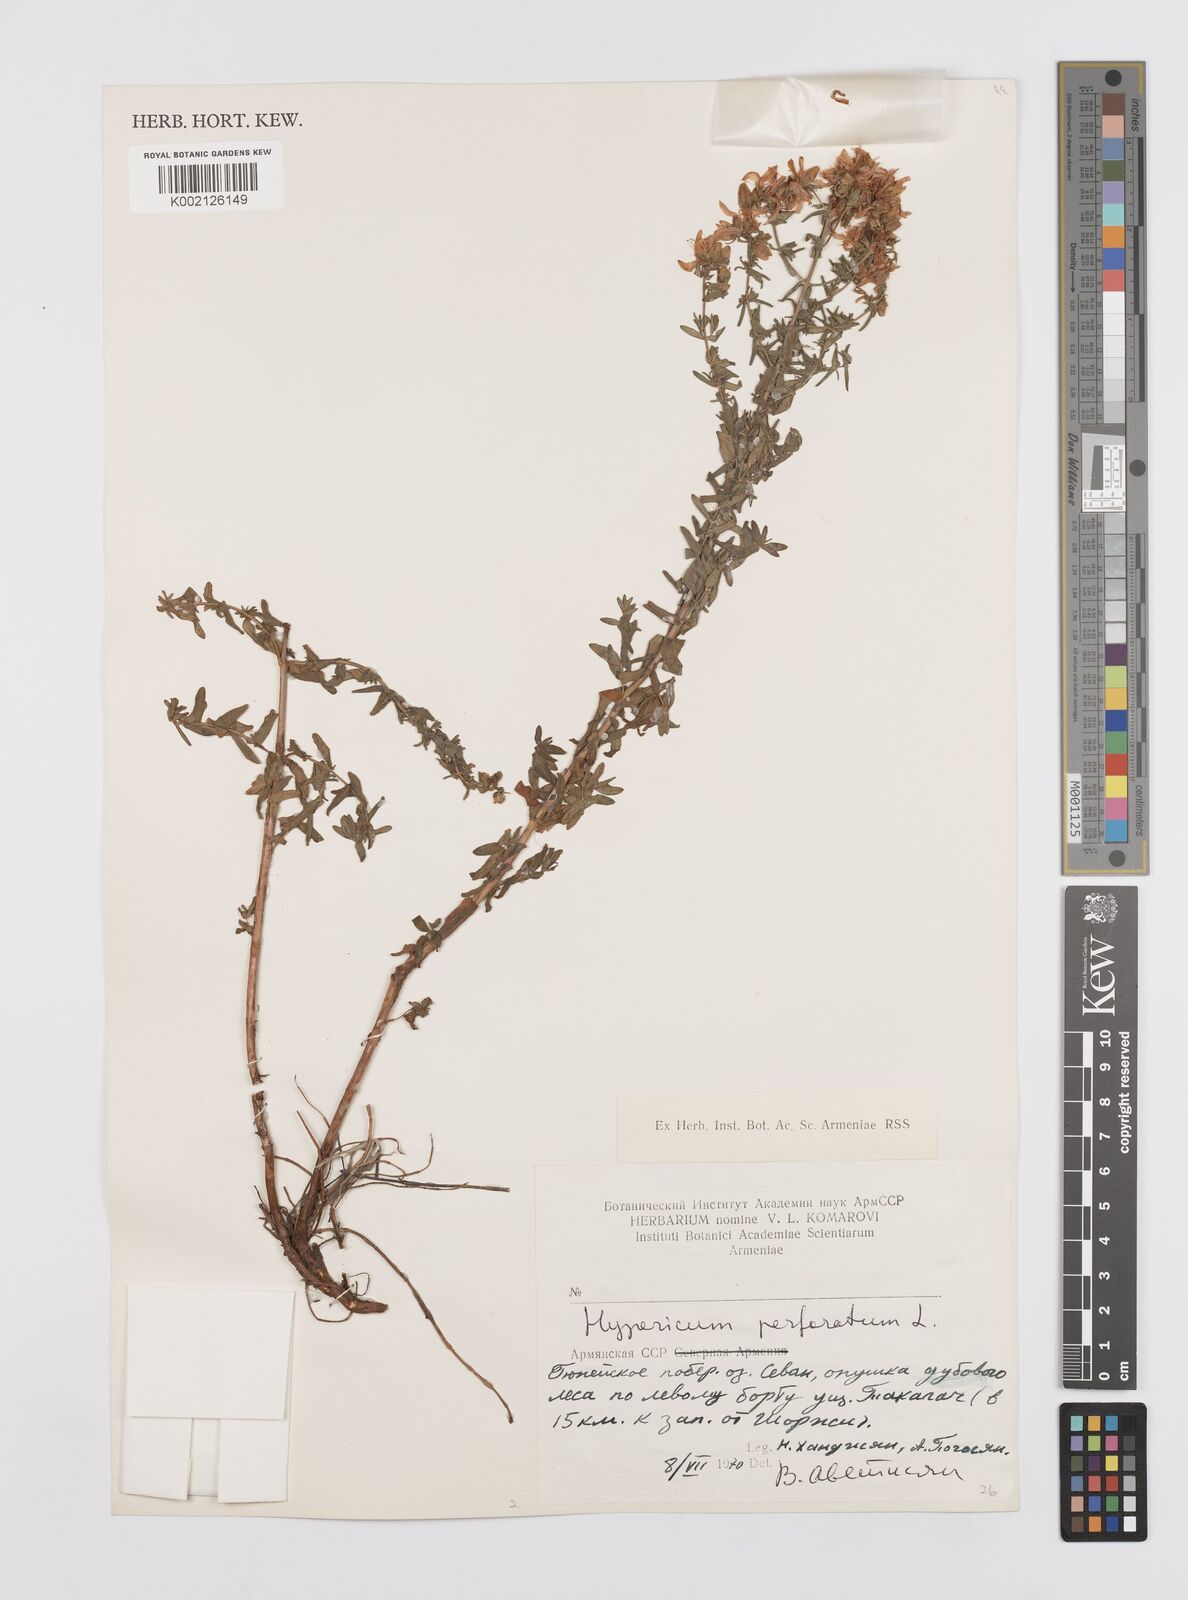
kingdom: Plantae
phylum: Tracheophyta
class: Magnoliopsida
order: Malpighiales
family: Hypericaceae
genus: Hypericum
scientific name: Hypericum perfoliatum
